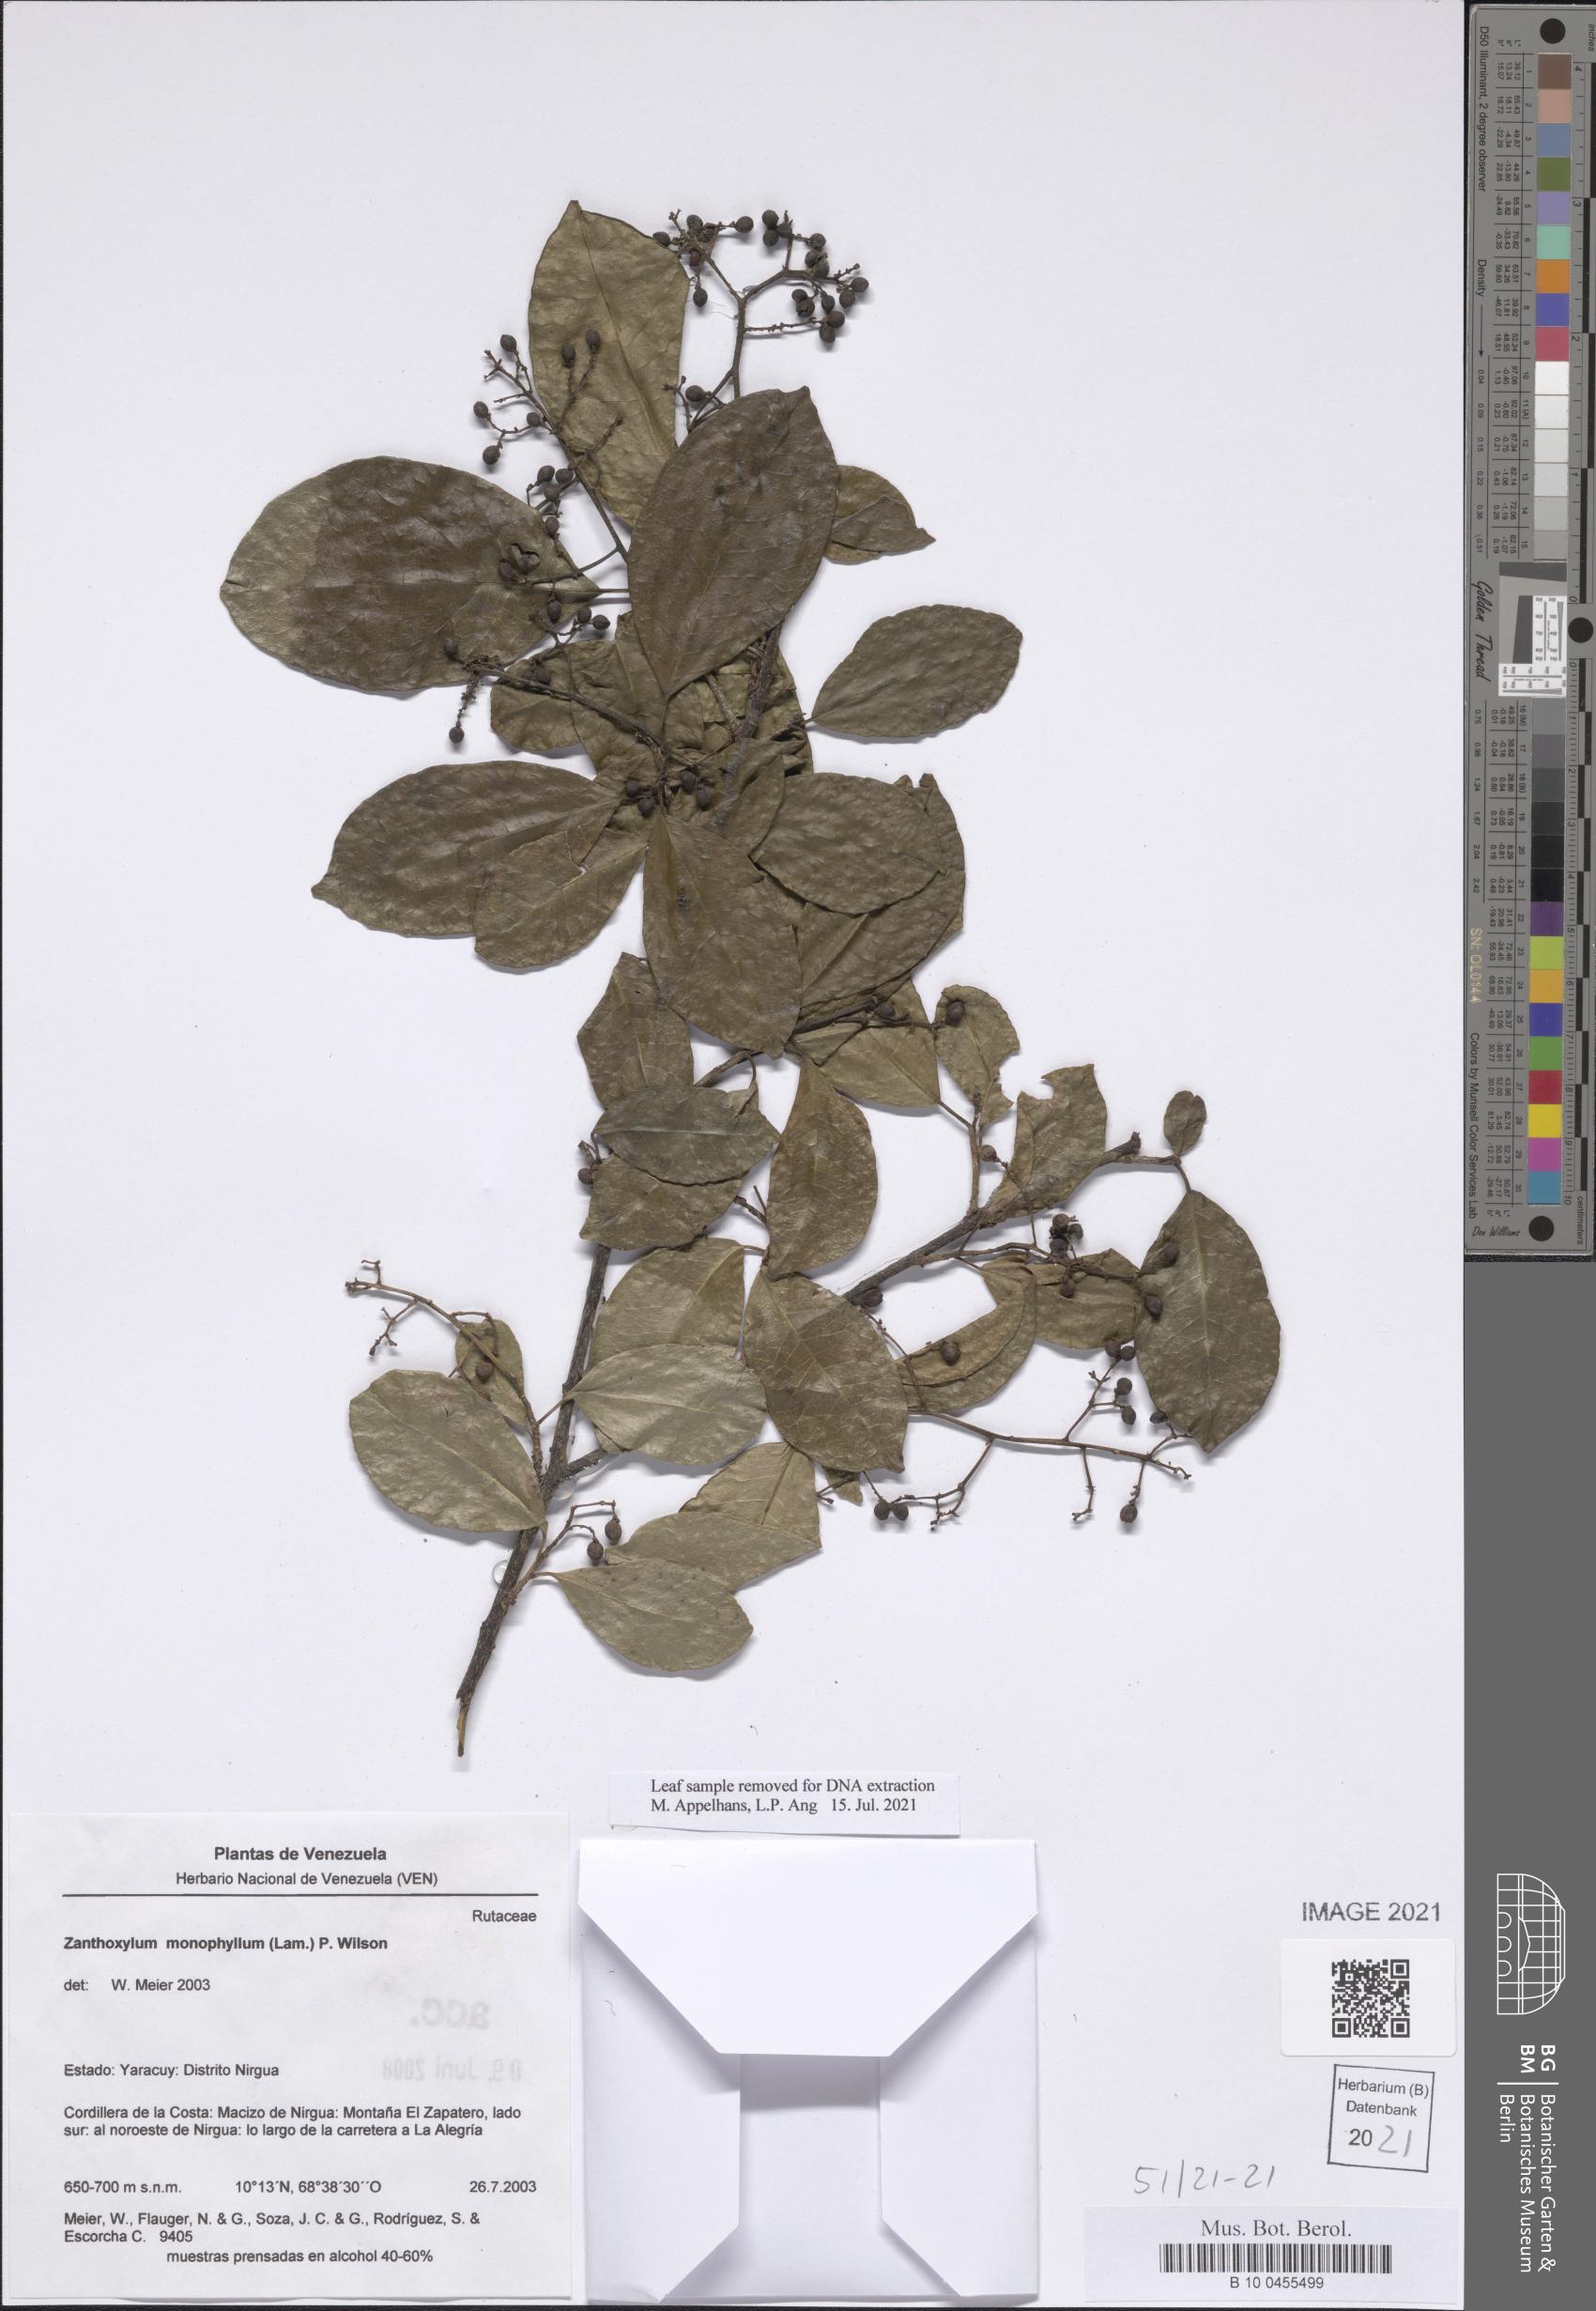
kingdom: Plantae
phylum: Tracheophyta
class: Magnoliopsida
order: Sapindales
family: Rutaceae
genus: Zanthoxylum
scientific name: Zanthoxylum schreberi
